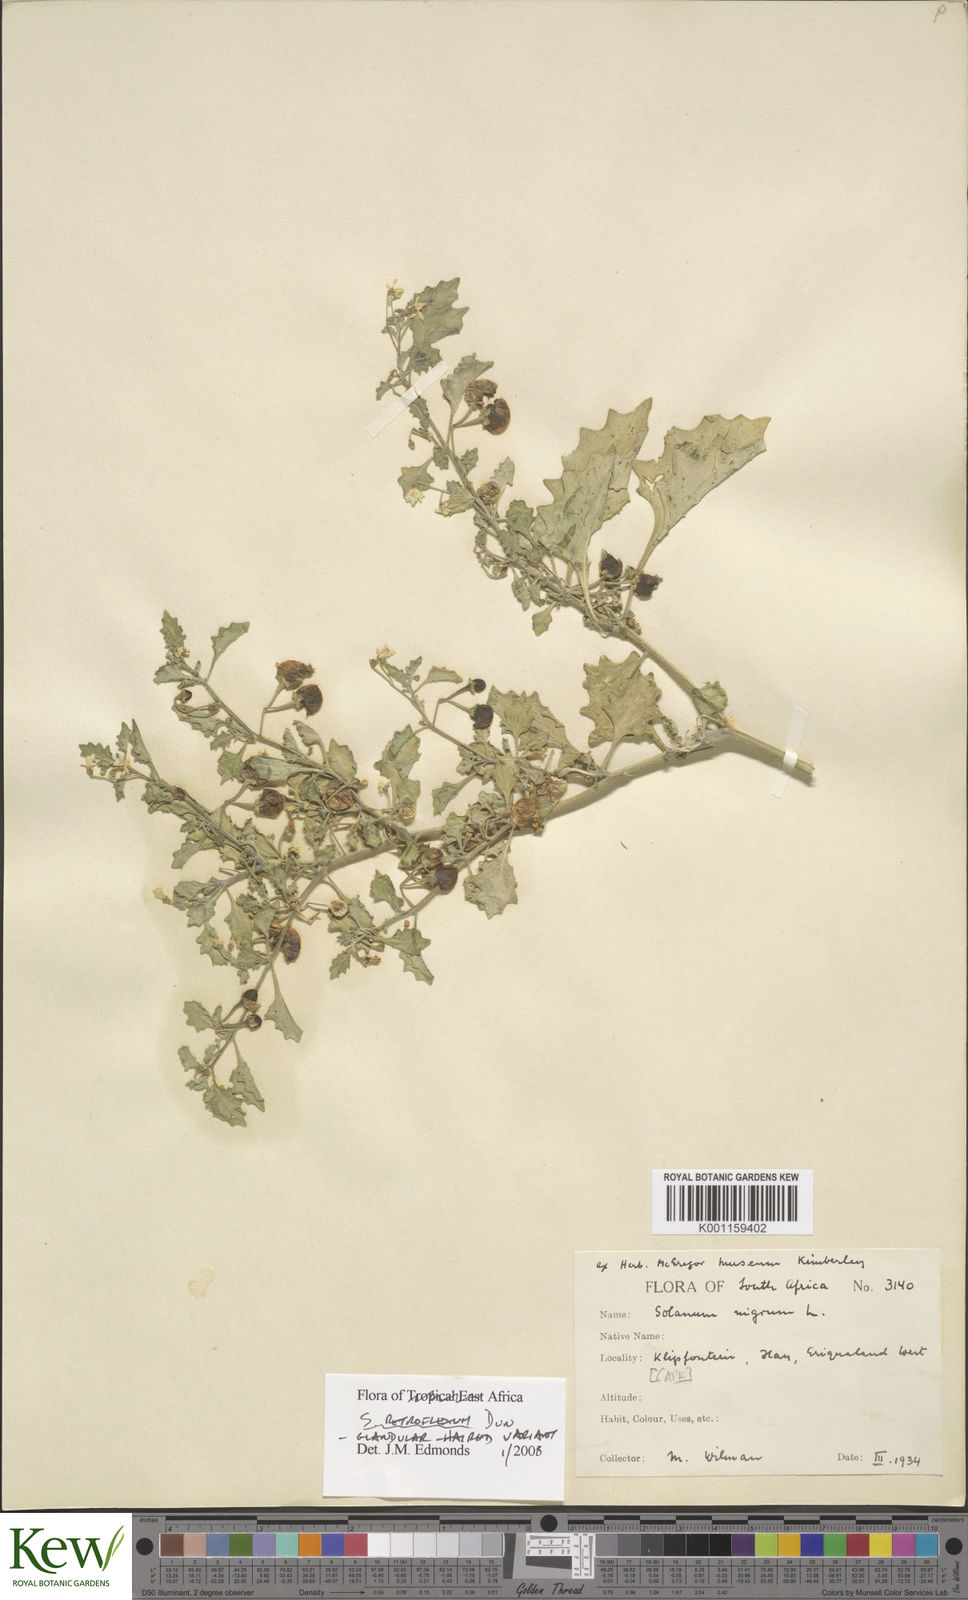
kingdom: Plantae
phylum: Tracheophyta
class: Magnoliopsida
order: Solanales
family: Solanaceae
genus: Solanum
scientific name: Solanum retroflexum
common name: Wonderberry
